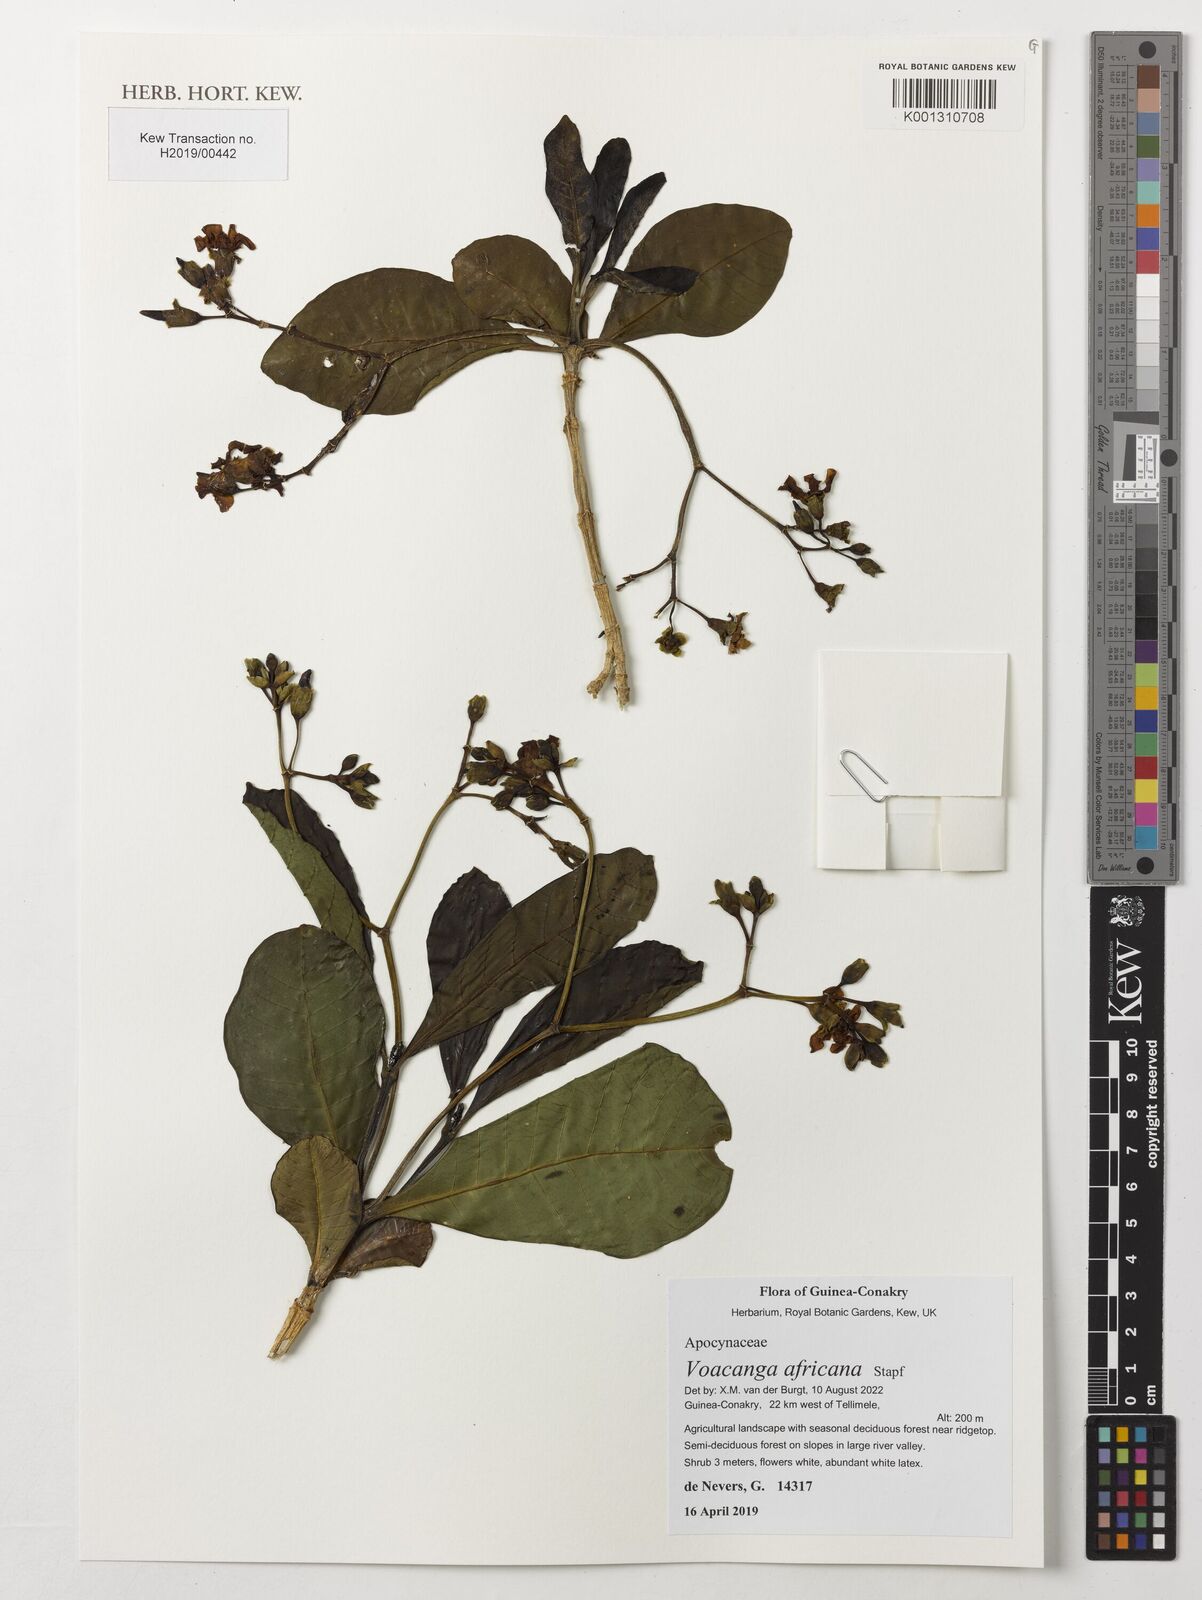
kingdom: Plantae
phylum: Tracheophyta
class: Magnoliopsida
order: Gentianales
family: Apocynaceae
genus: Voacanga
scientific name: Voacanga africana
